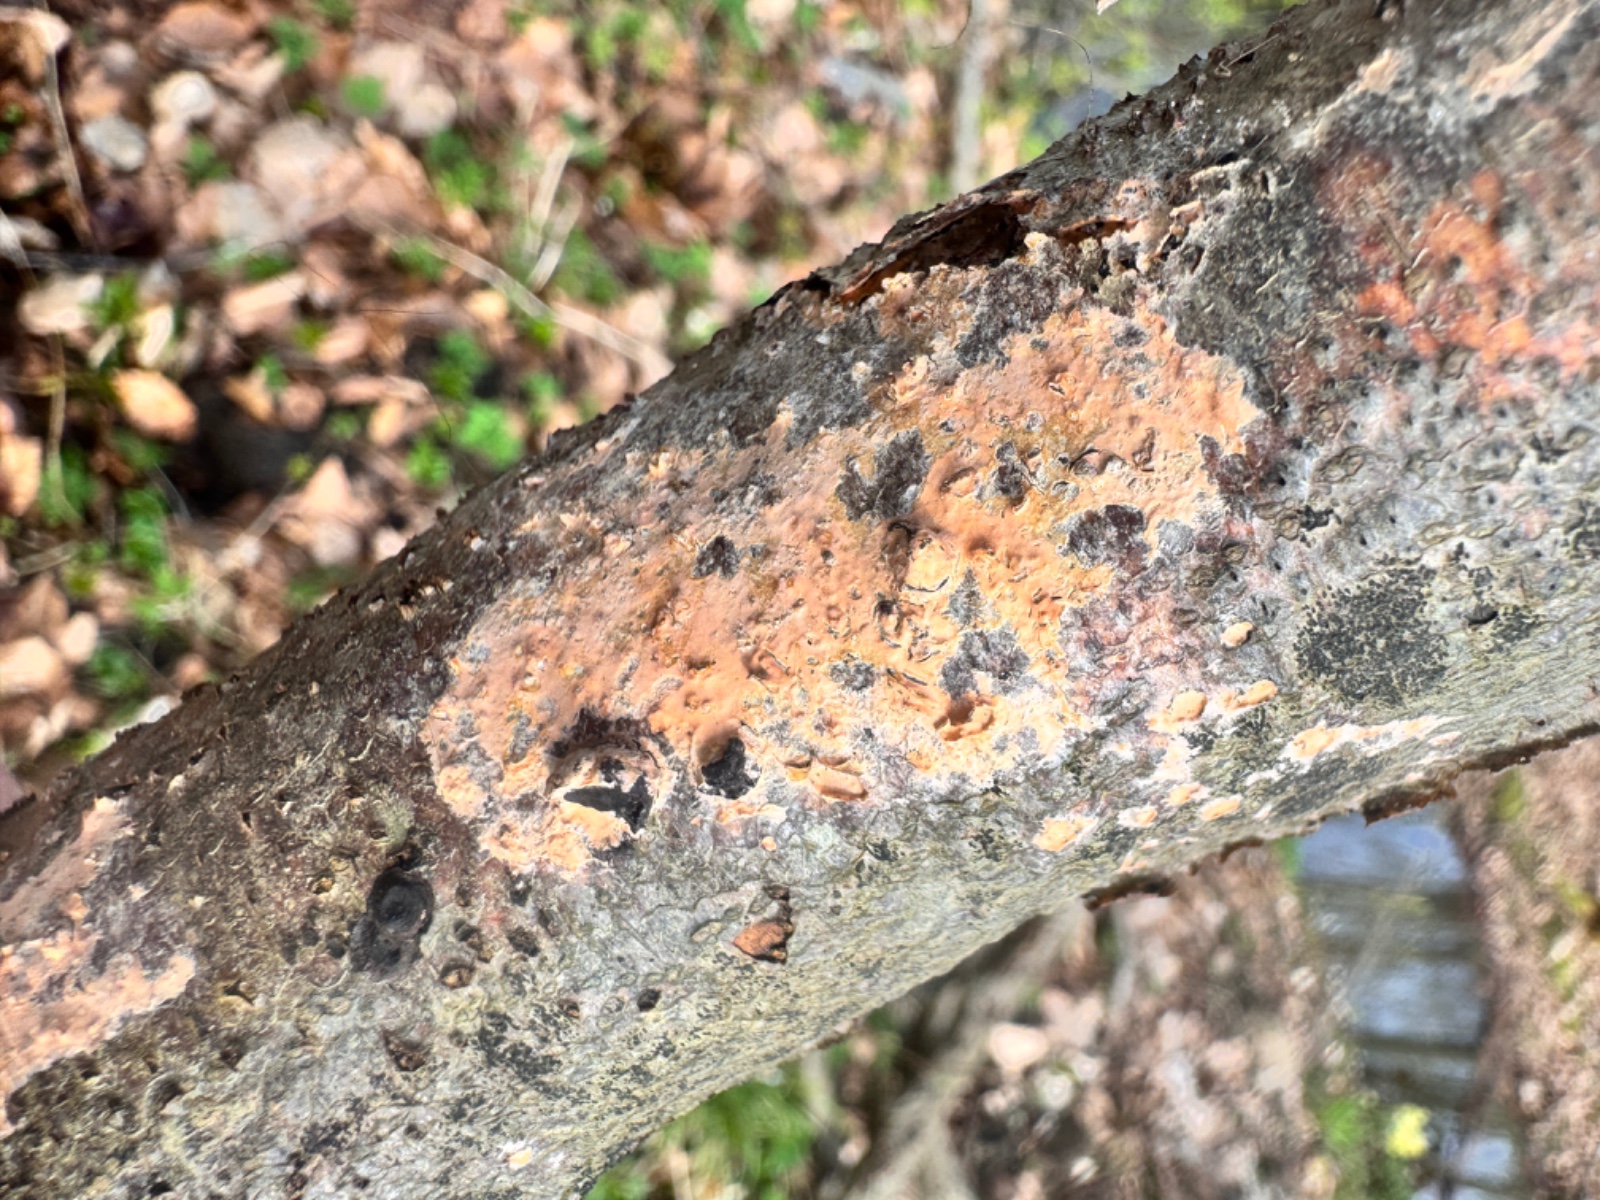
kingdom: Fungi
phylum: Basidiomycota
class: Agaricomycetes
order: Russulales
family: Peniophoraceae
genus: Peniophora
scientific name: Peniophora incarnata
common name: laksefarvet voksskind
